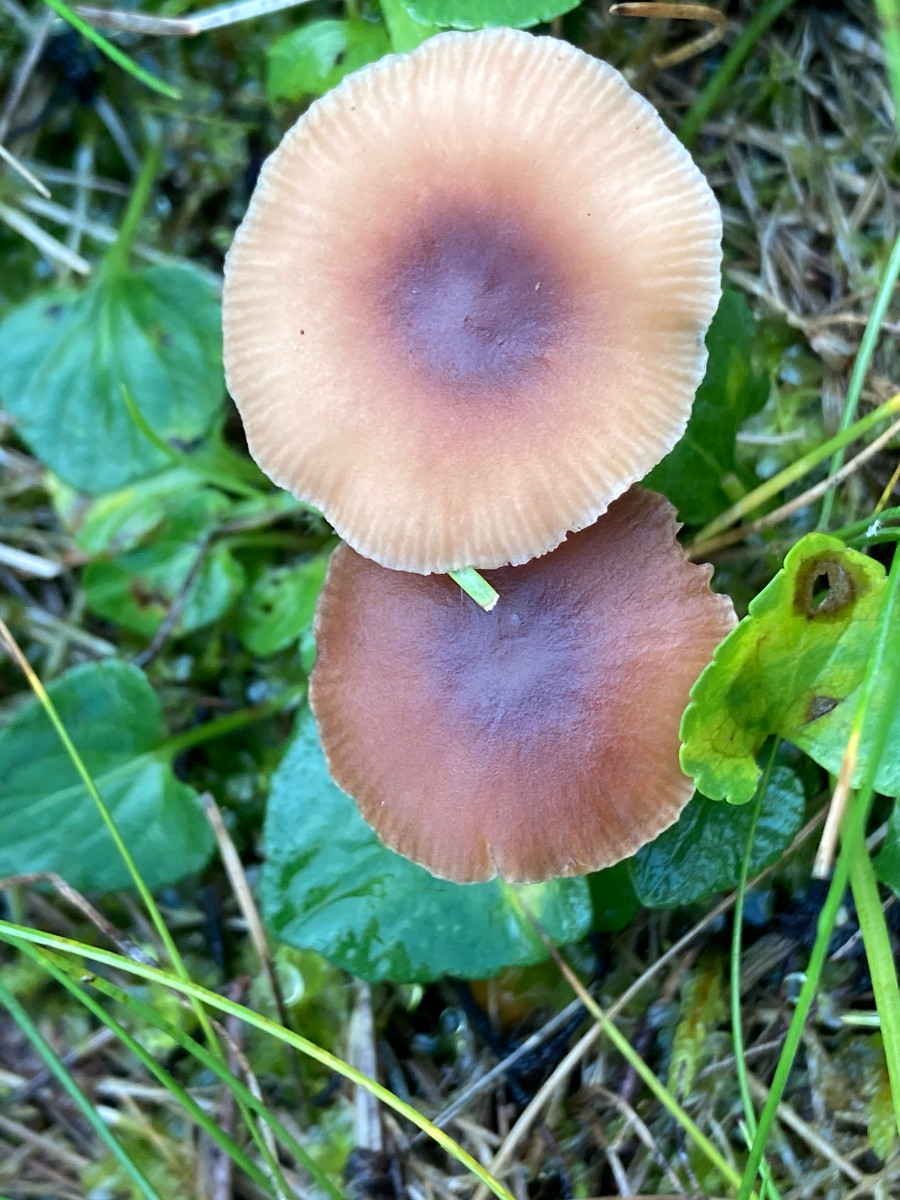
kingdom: Fungi
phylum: Basidiomycota
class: Agaricomycetes
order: Agaricales
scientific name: Agaricales
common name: champignonordenen
